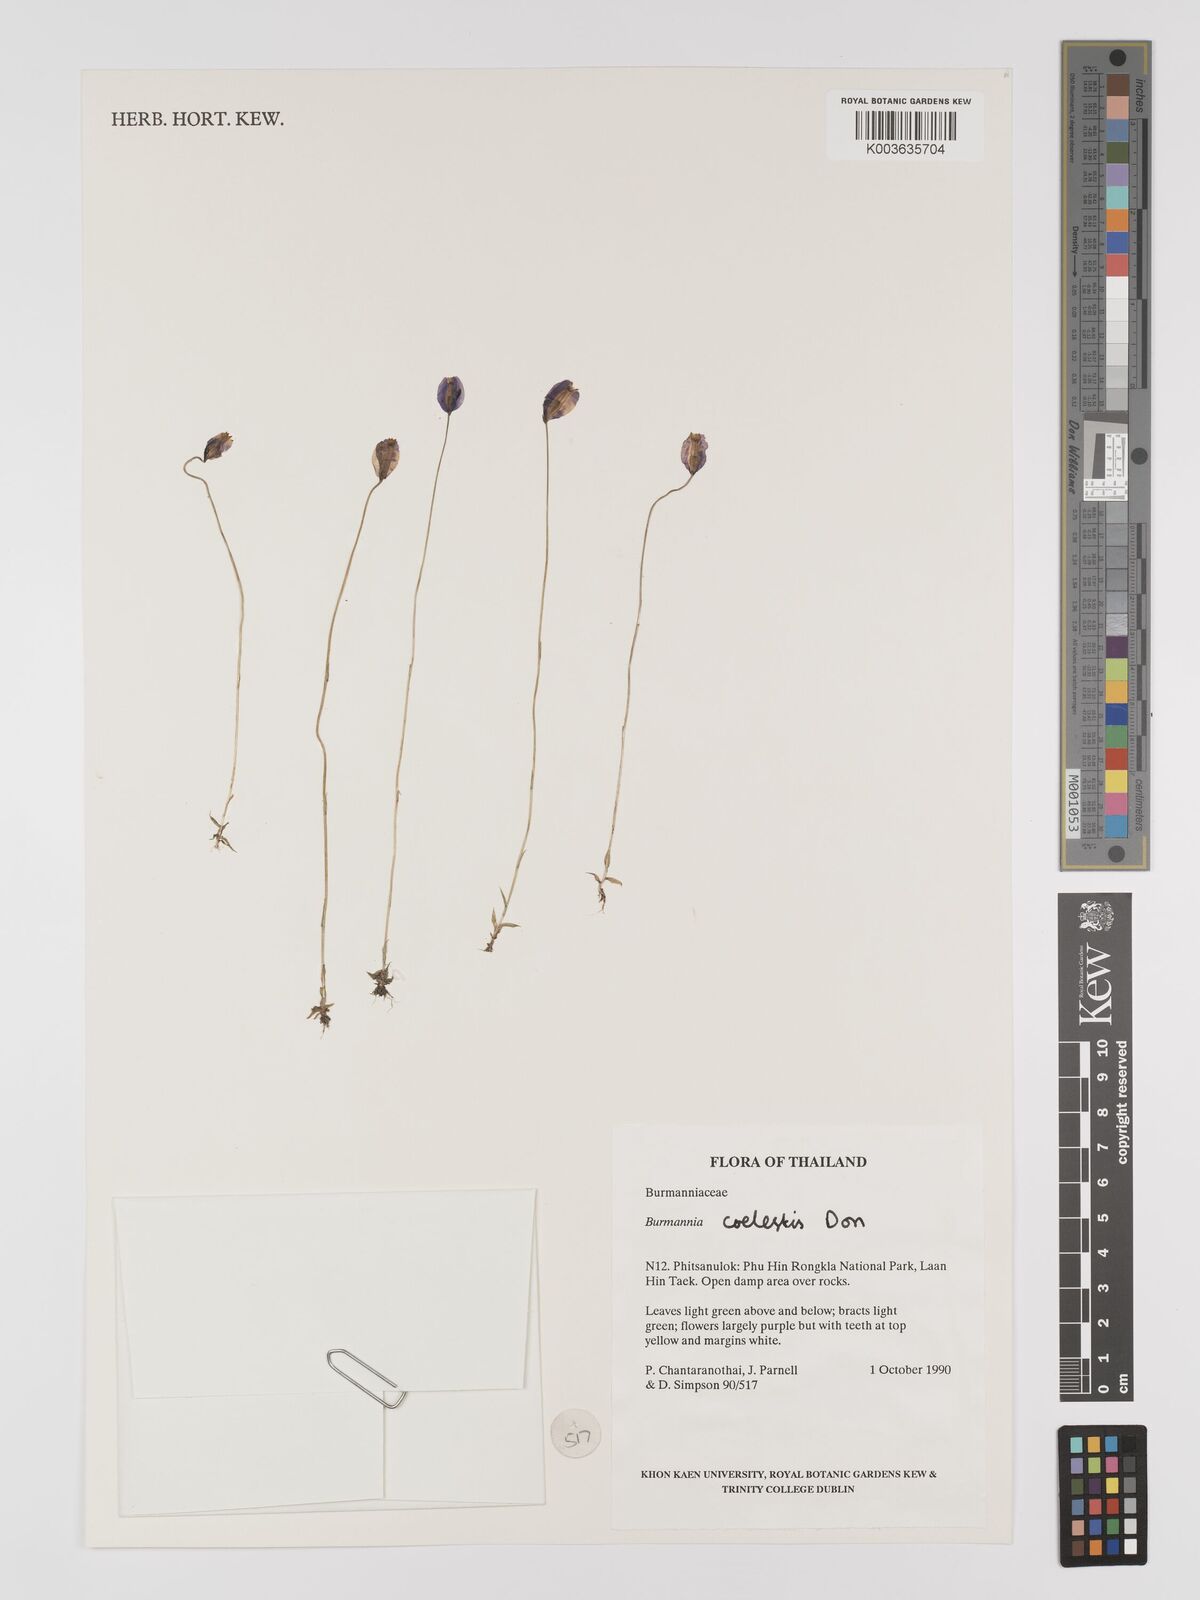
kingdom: Plantae
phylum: Tracheophyta
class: Liliopsida
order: Dioscoreales
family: Burmanniaceae
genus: Burmannia
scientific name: Burmannia coelestis
